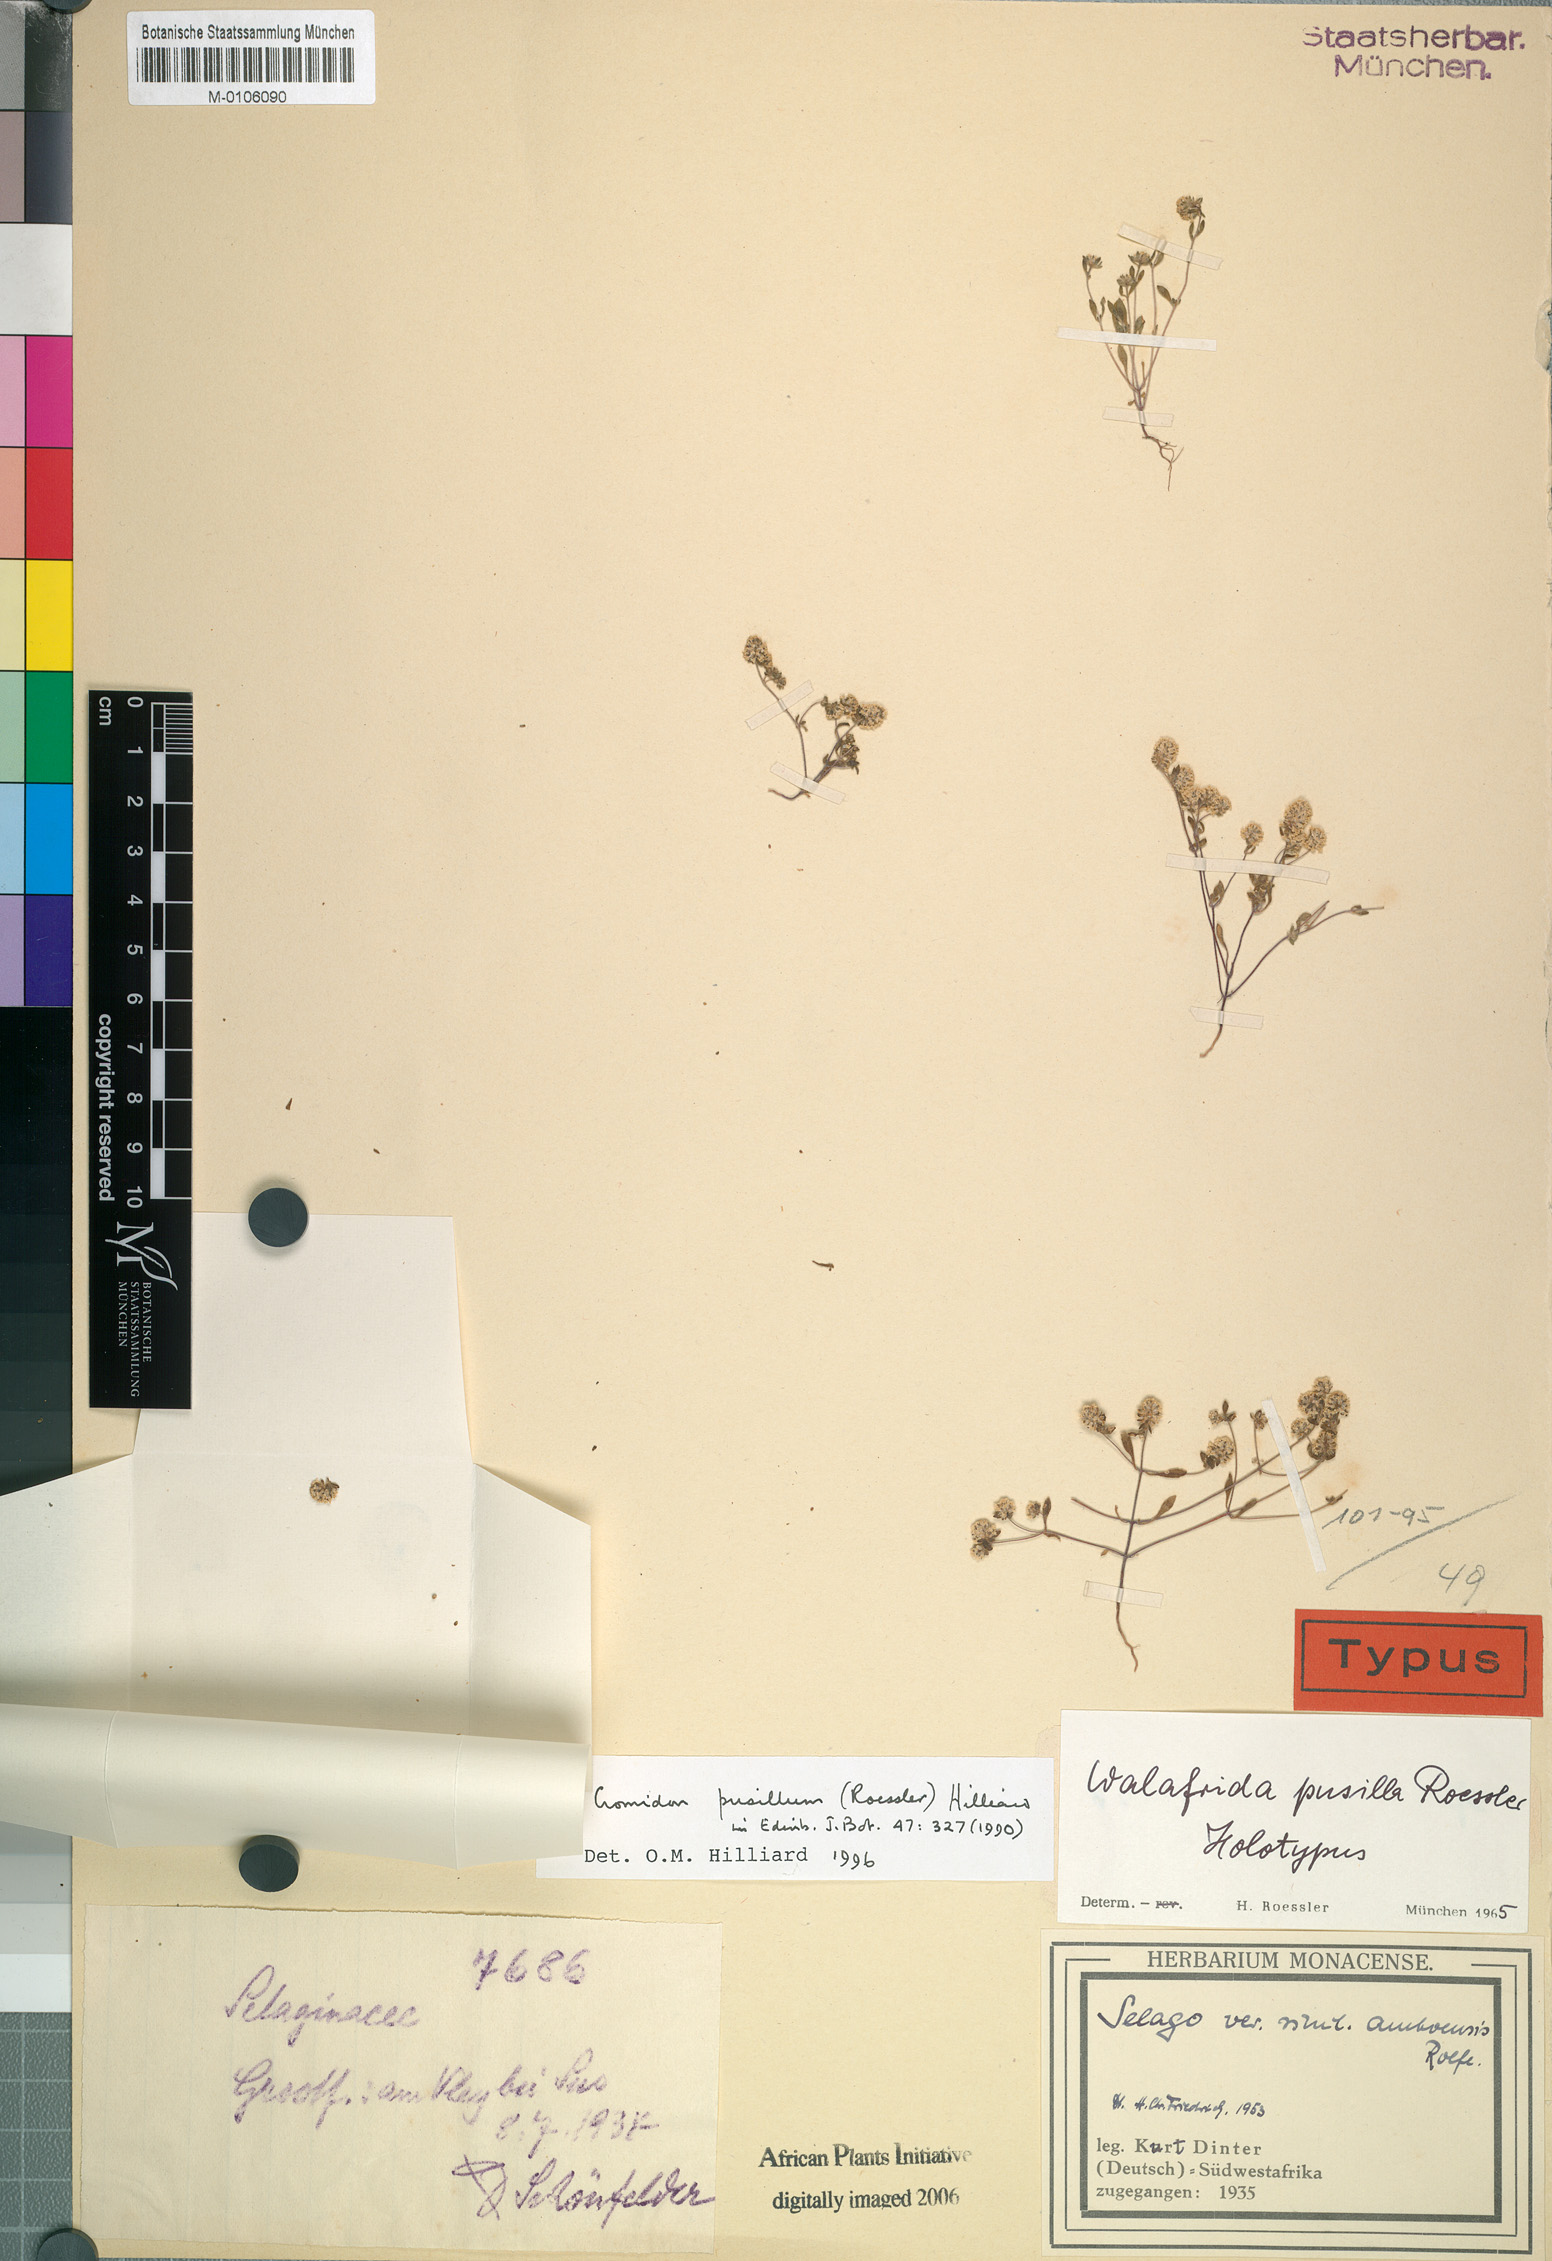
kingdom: Plantae
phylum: Tracheophyta
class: Magnoliopsida
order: Lamiales
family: Scrophulariaceae
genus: Cromidon
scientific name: Cromidon pusillum
